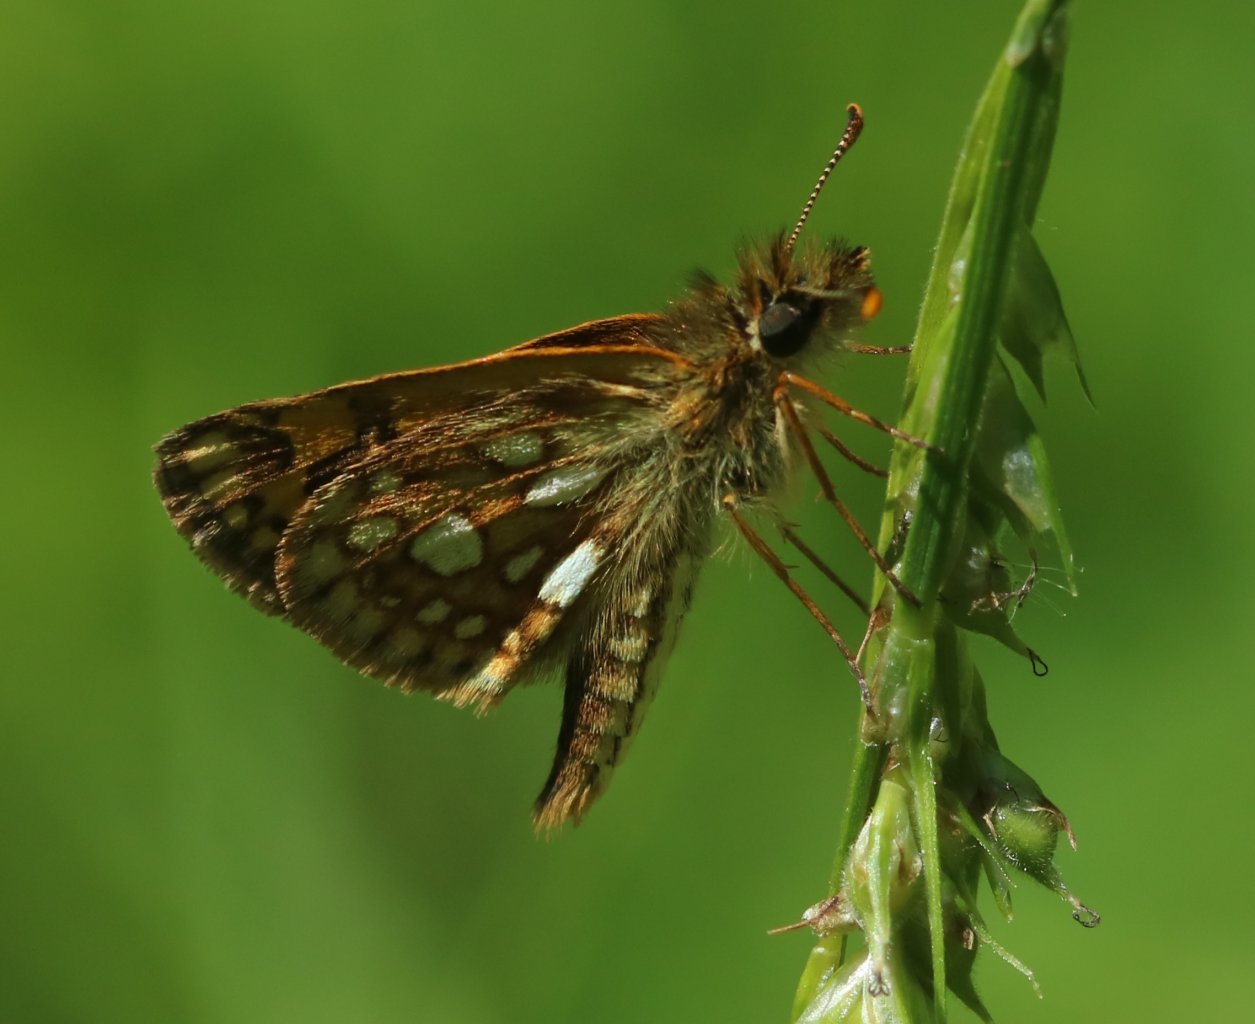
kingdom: Animalia
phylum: Arthropoda
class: Insecta
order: Lepidoptera
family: Hesperiidae
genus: Carterocephalus
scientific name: Carterocephalus palaemon
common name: Chequered Skipper
